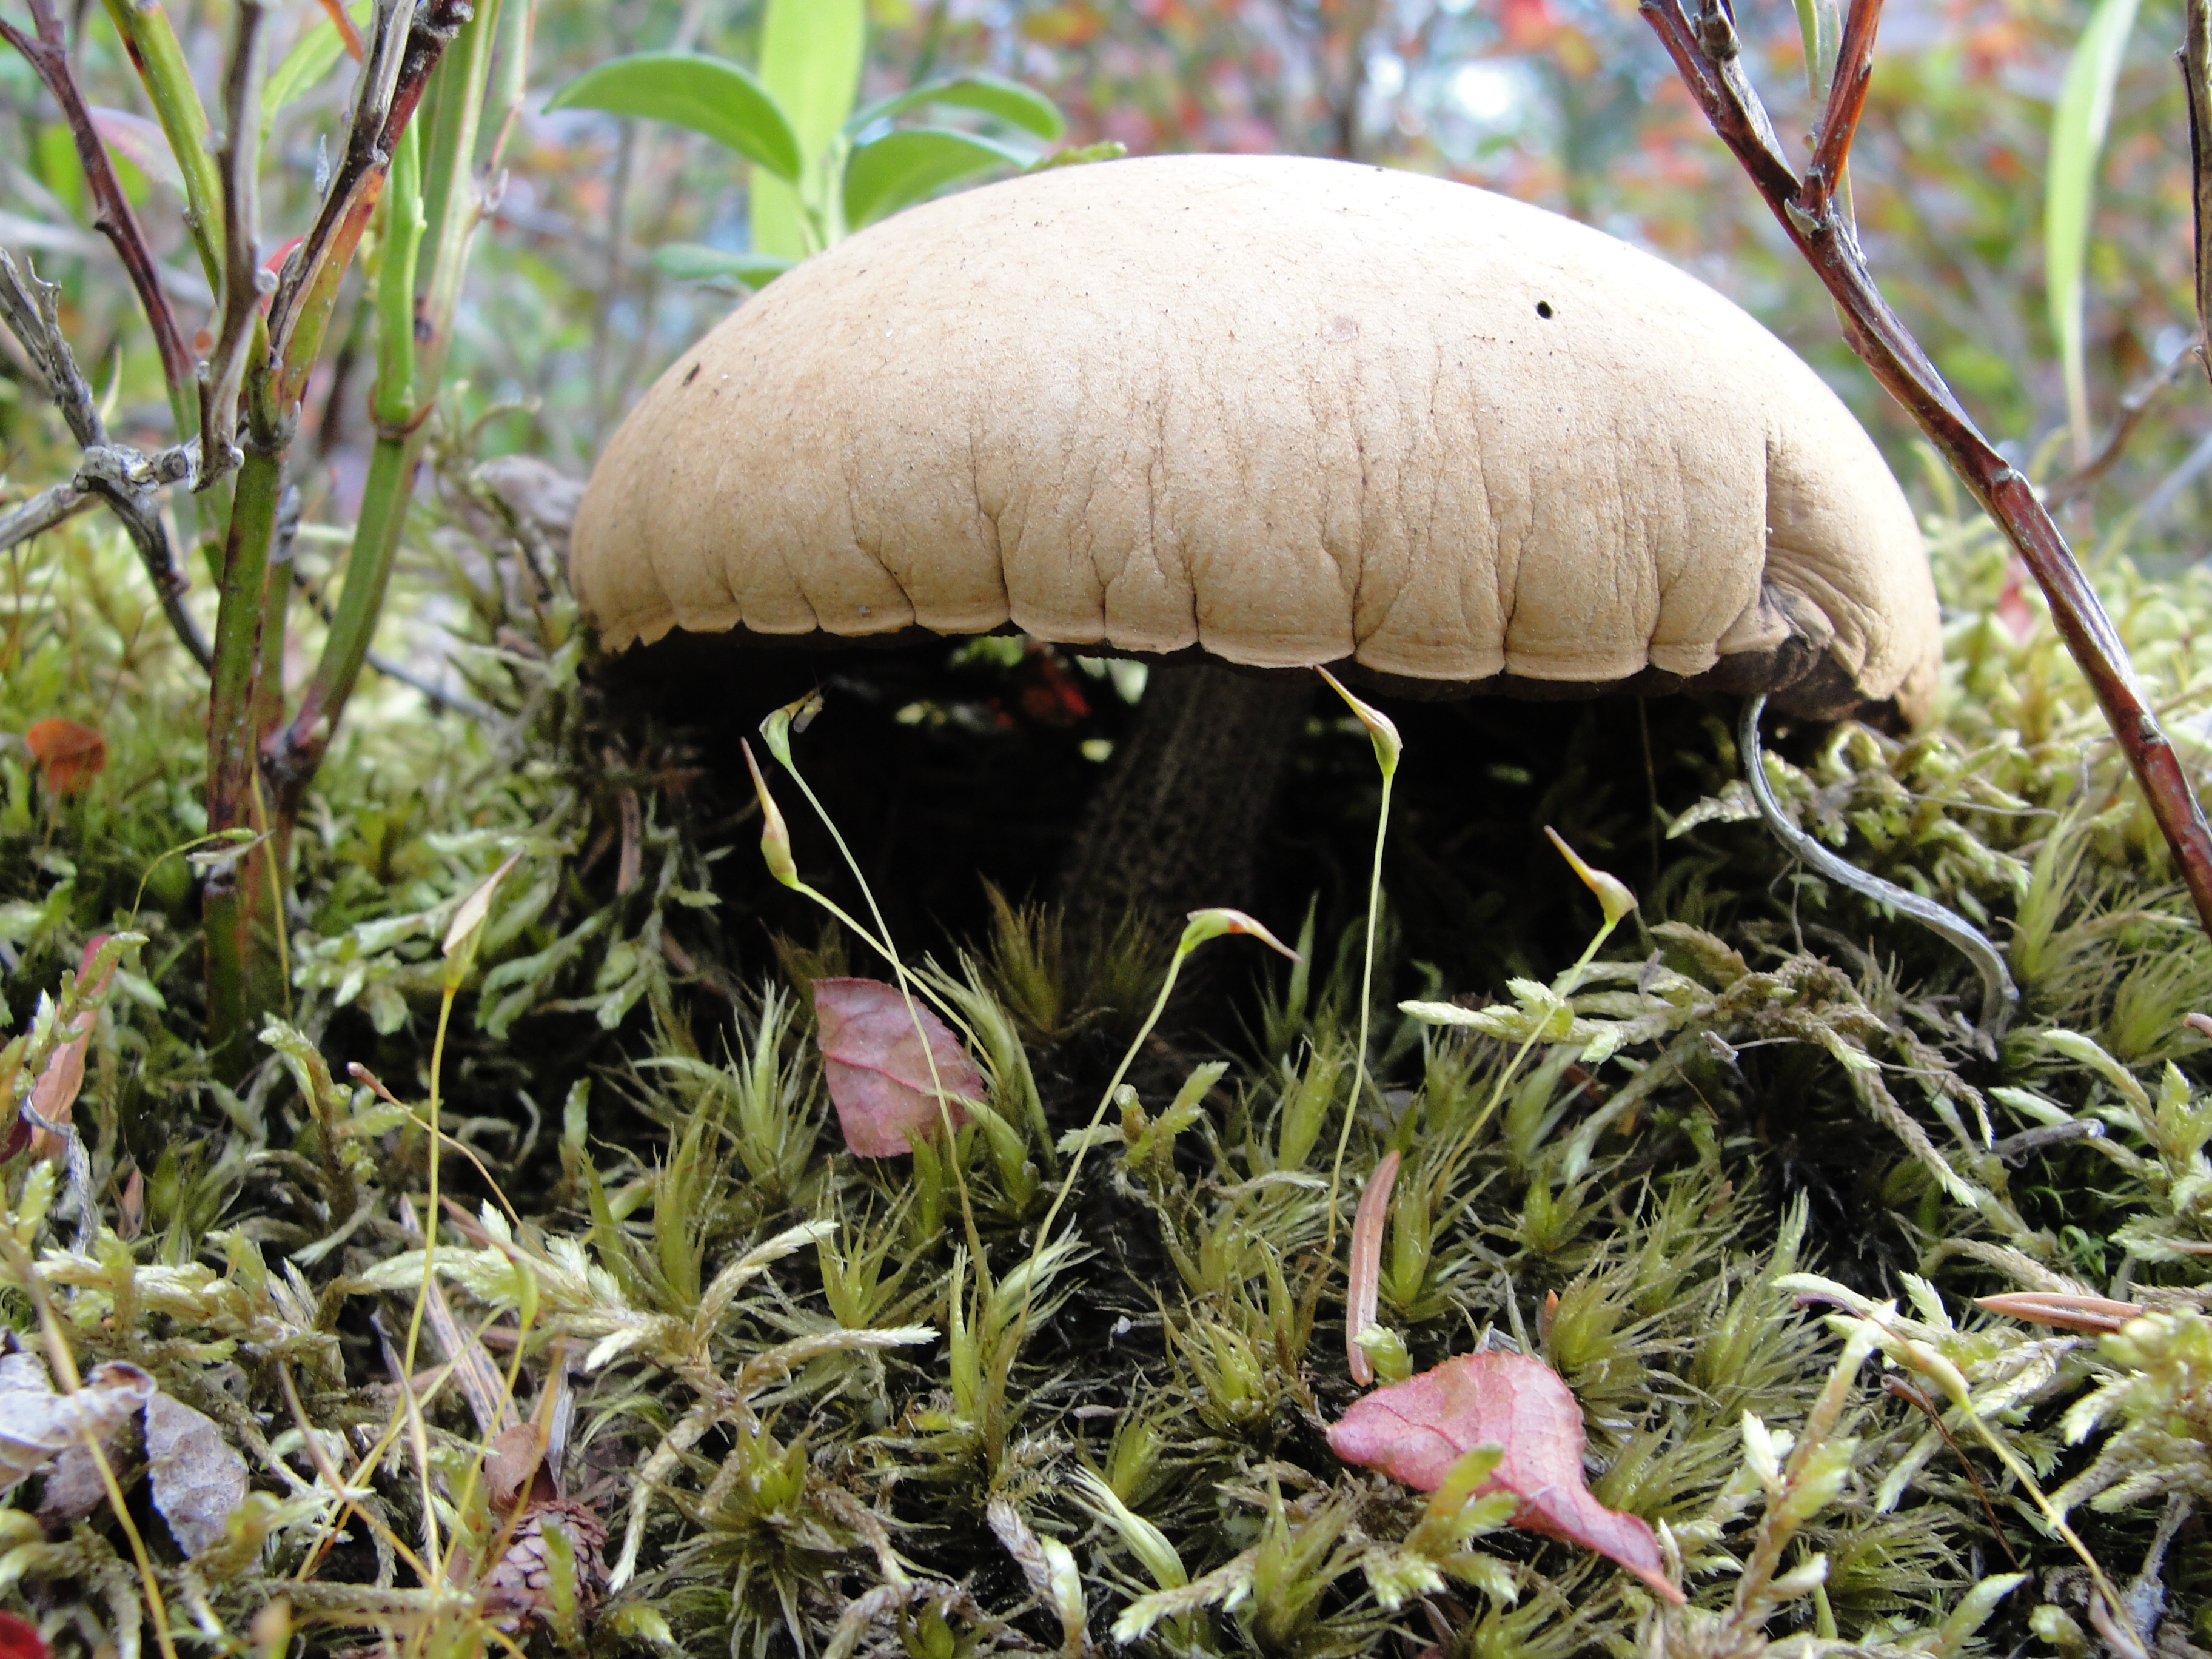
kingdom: Fungi
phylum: Basidiomycota
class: Agaricomycetes
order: Boletales
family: Boletaceae
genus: Leccinum
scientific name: Leccinum versipelle
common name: Orange birch bolete
